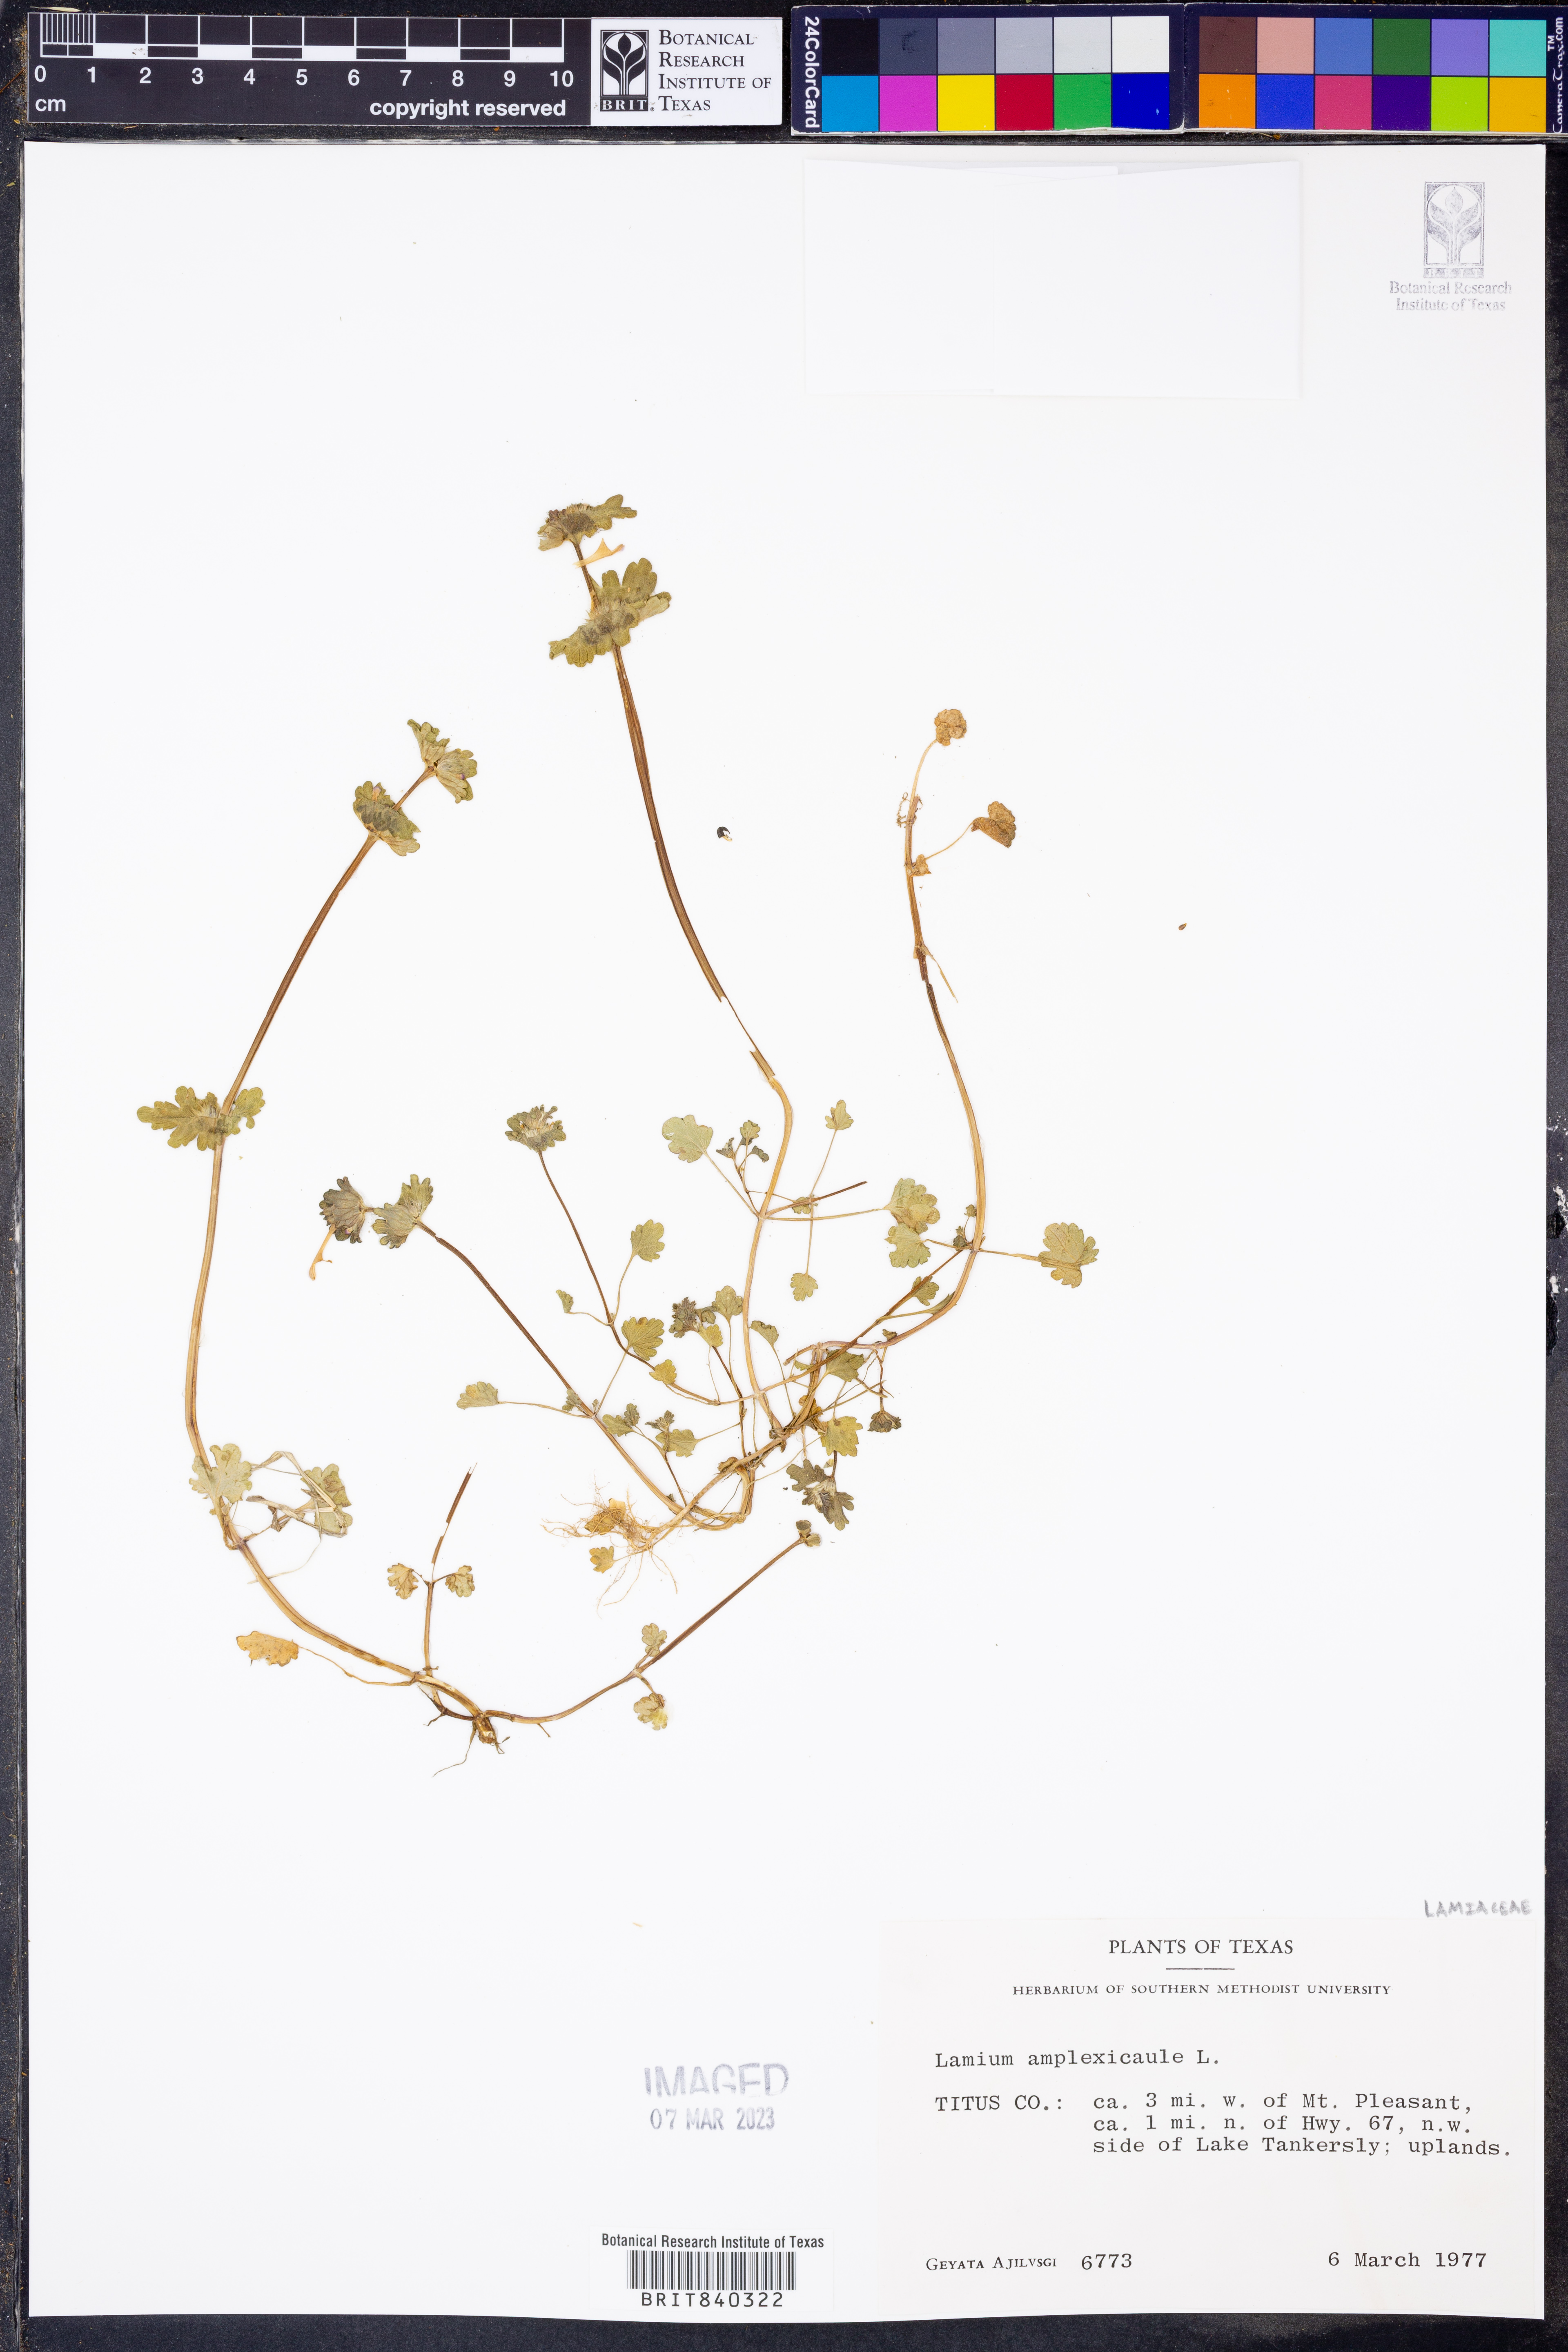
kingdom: Plantae
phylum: Tracheophyta
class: Magnoliopsida
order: Lamiales
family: Lamiaceae
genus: Lamium
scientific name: Lamium amplexicaule
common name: Henbit dead-nettle
